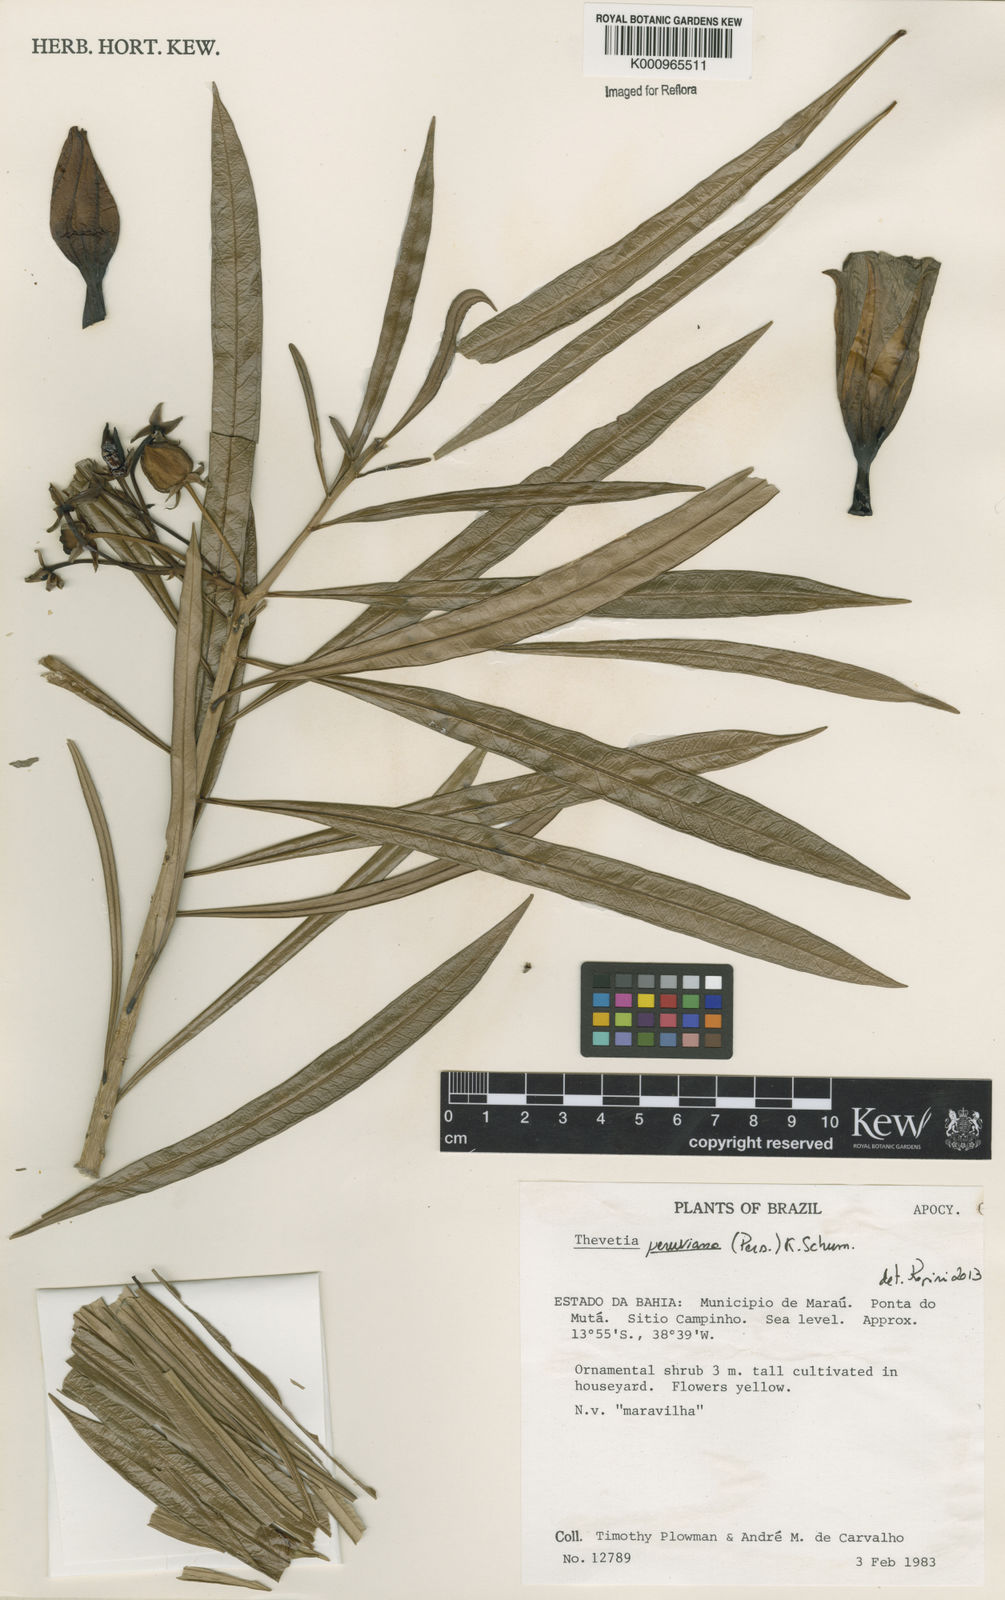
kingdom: Plantae
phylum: Tracheophyta
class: Magnoliopsida
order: Gentianales
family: Apocynaceae
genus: Cascabela
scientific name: Cascabela thevetia
